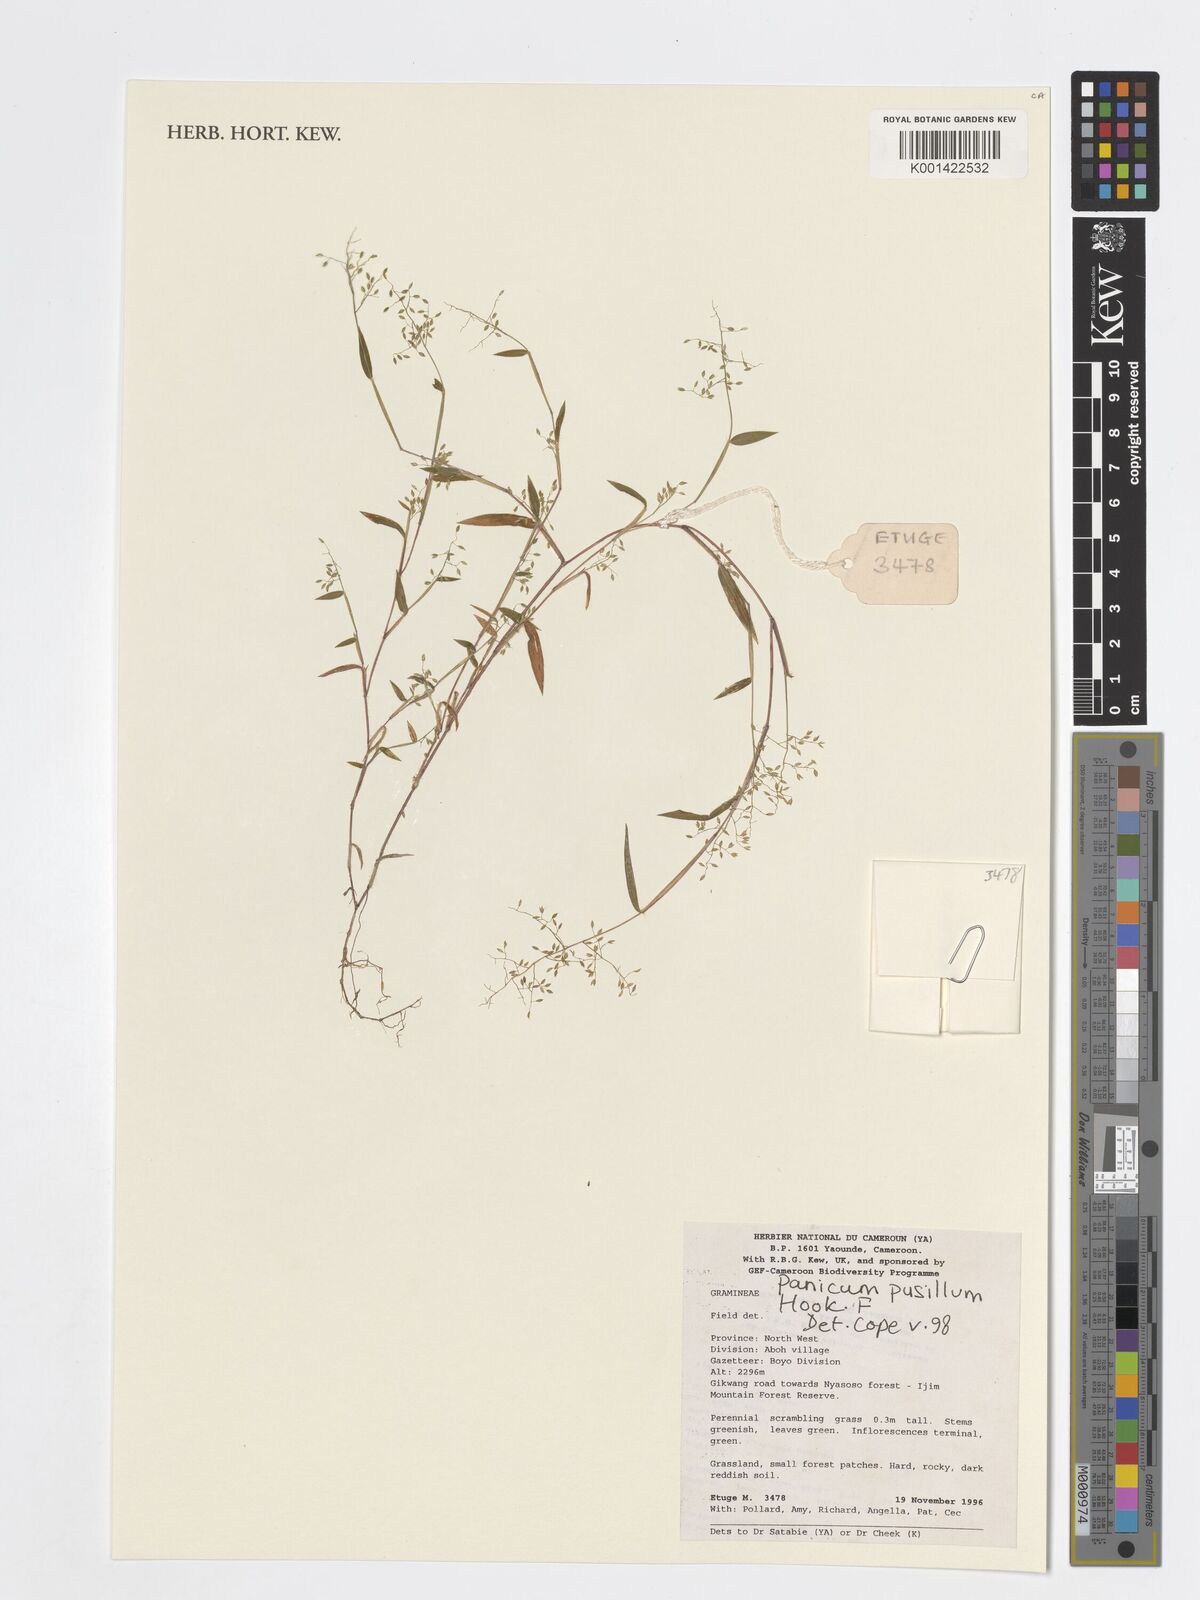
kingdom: Plantae
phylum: Tracheophyta
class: Liliopsida
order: Poales
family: Poaceae
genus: Panicum
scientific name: Panicum pusillum
